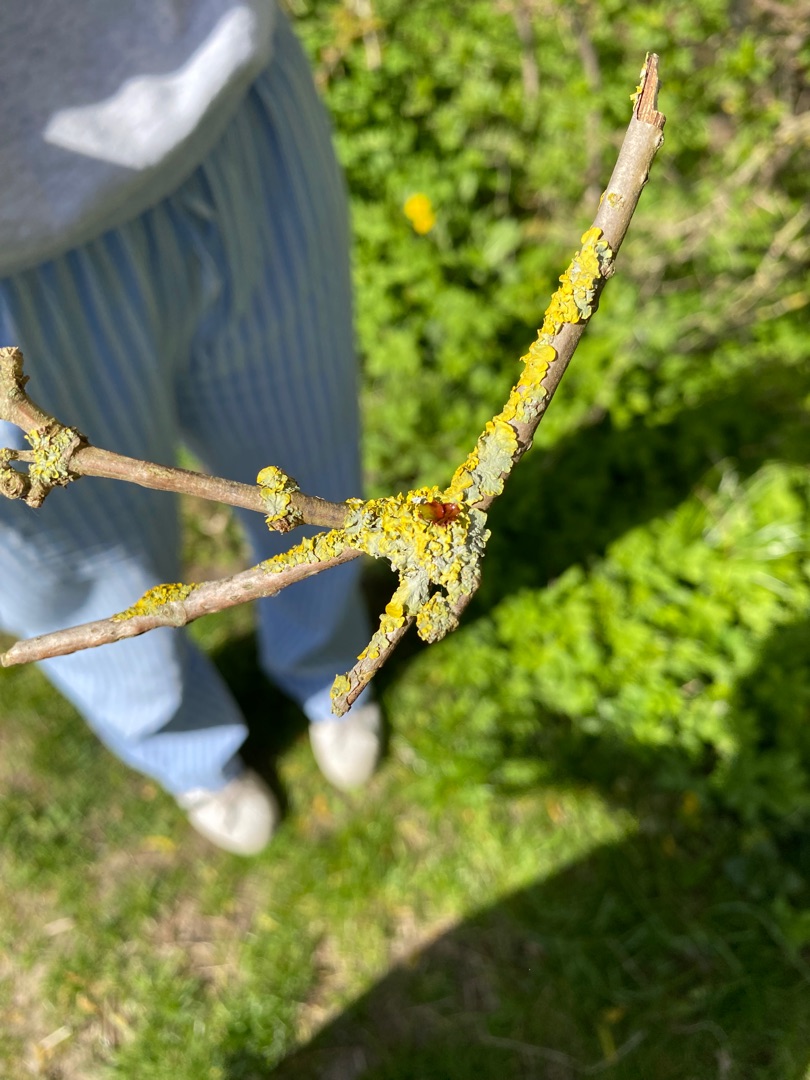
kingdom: Fungi
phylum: Ascomycota
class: Lecanoromycetes
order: Teloschistales
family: Teloschistaceae
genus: Xanthoria
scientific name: Xanthoria parietina
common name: Almindelig væggelav
